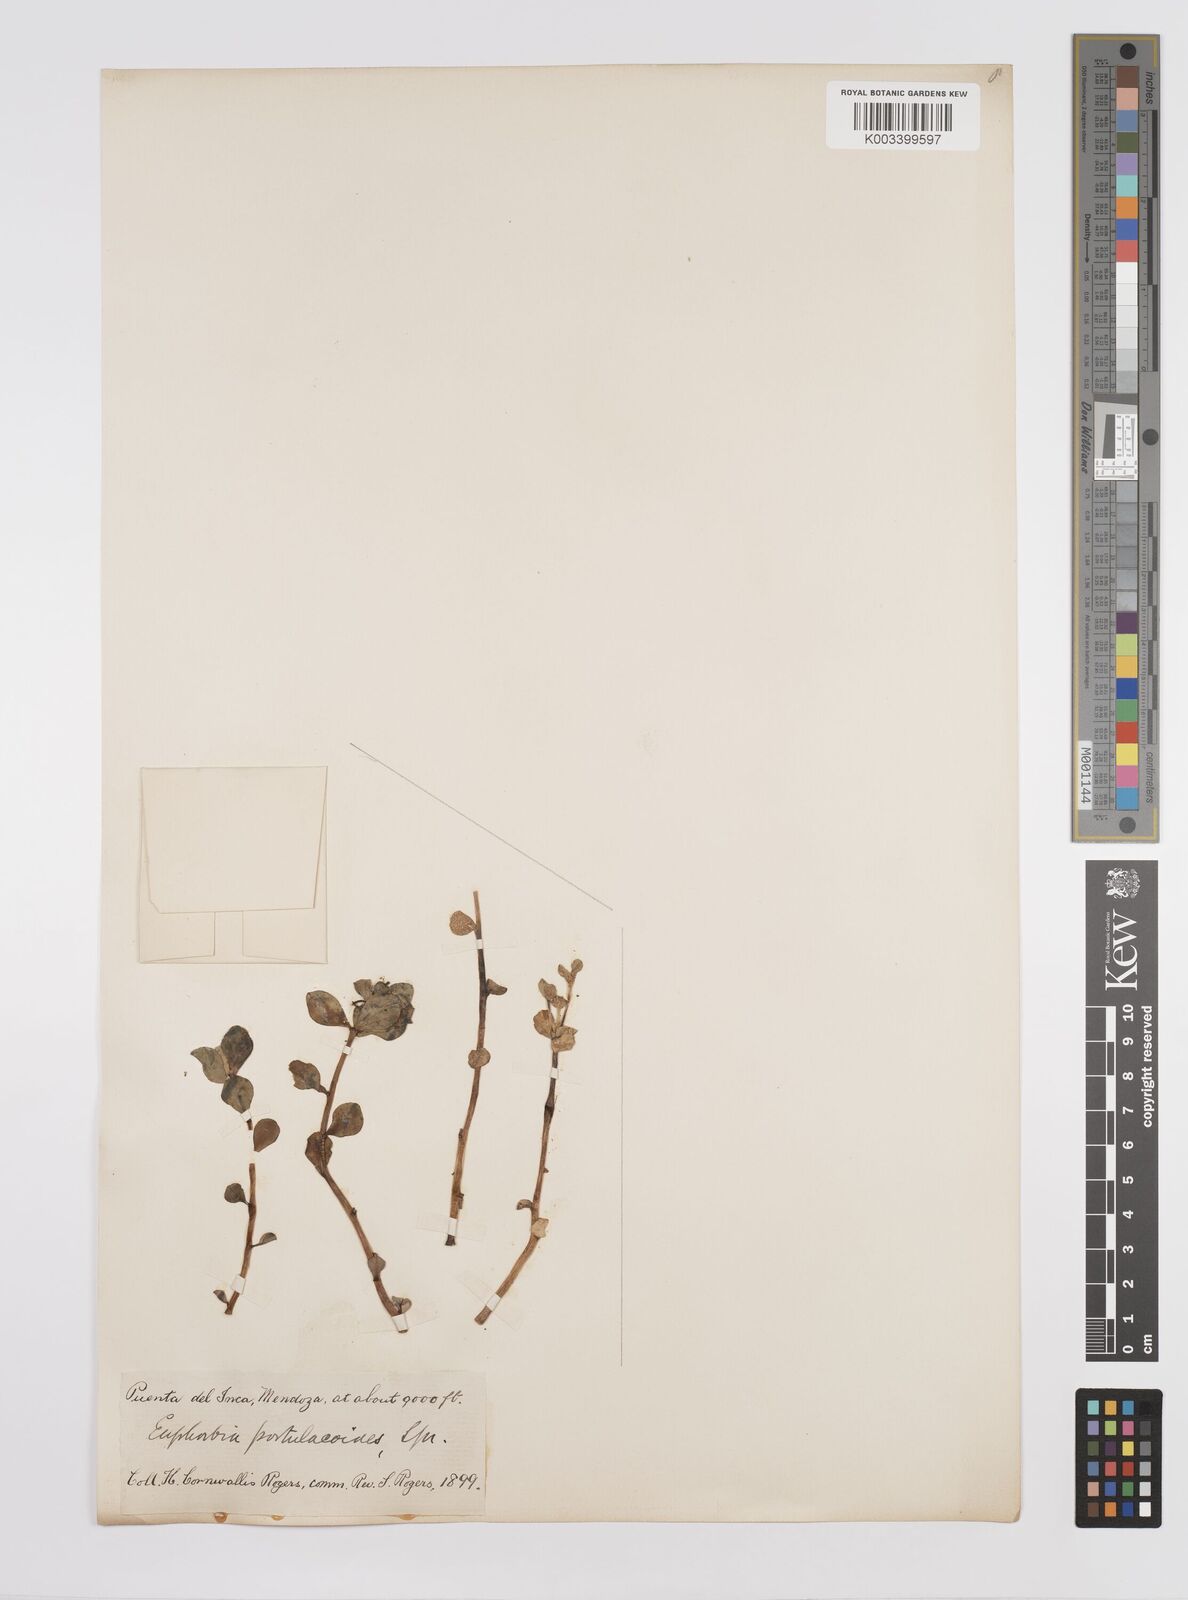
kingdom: Plantae
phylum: Tracheophyta
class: Magnoliopsida
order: Malpighiales
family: Euphorbiaceae
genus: Euphorbia
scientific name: Euphorbia portulacoides
